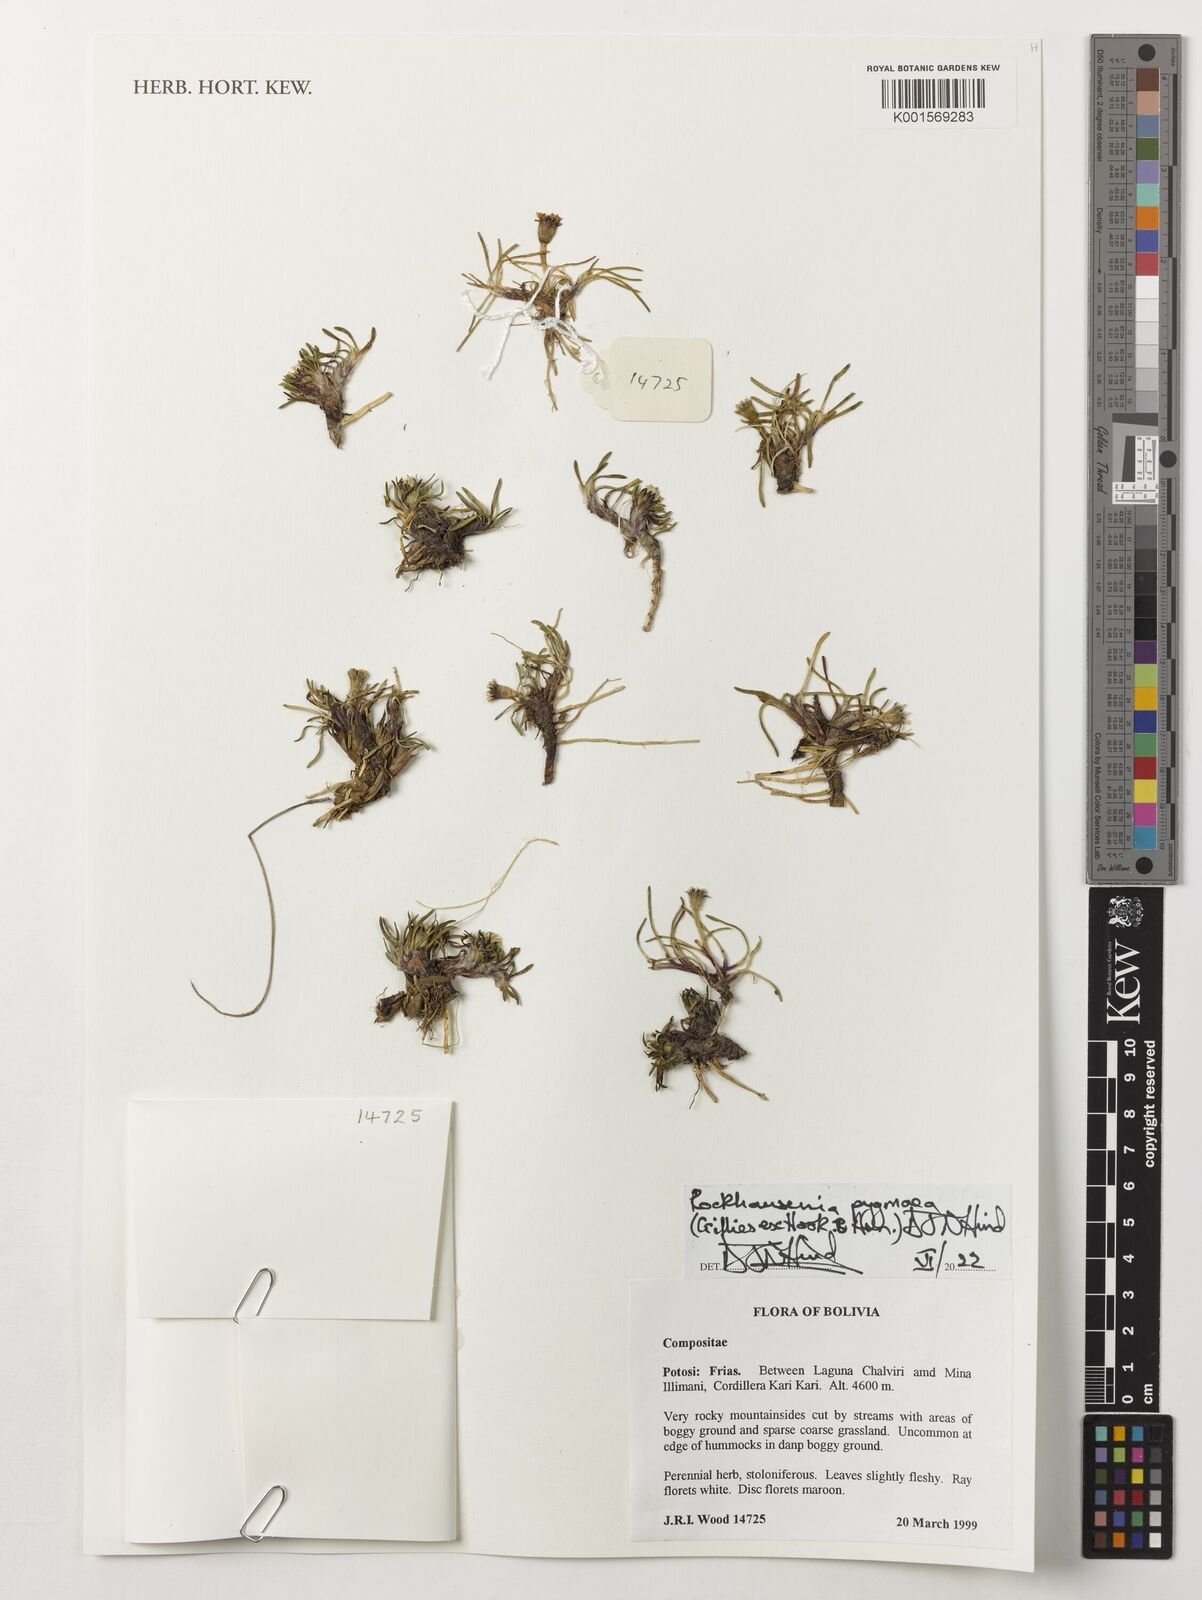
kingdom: Plantae
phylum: Tracheophyta
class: Magnoliopsida
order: Asterales
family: Asteraceae
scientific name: Asteraceae
